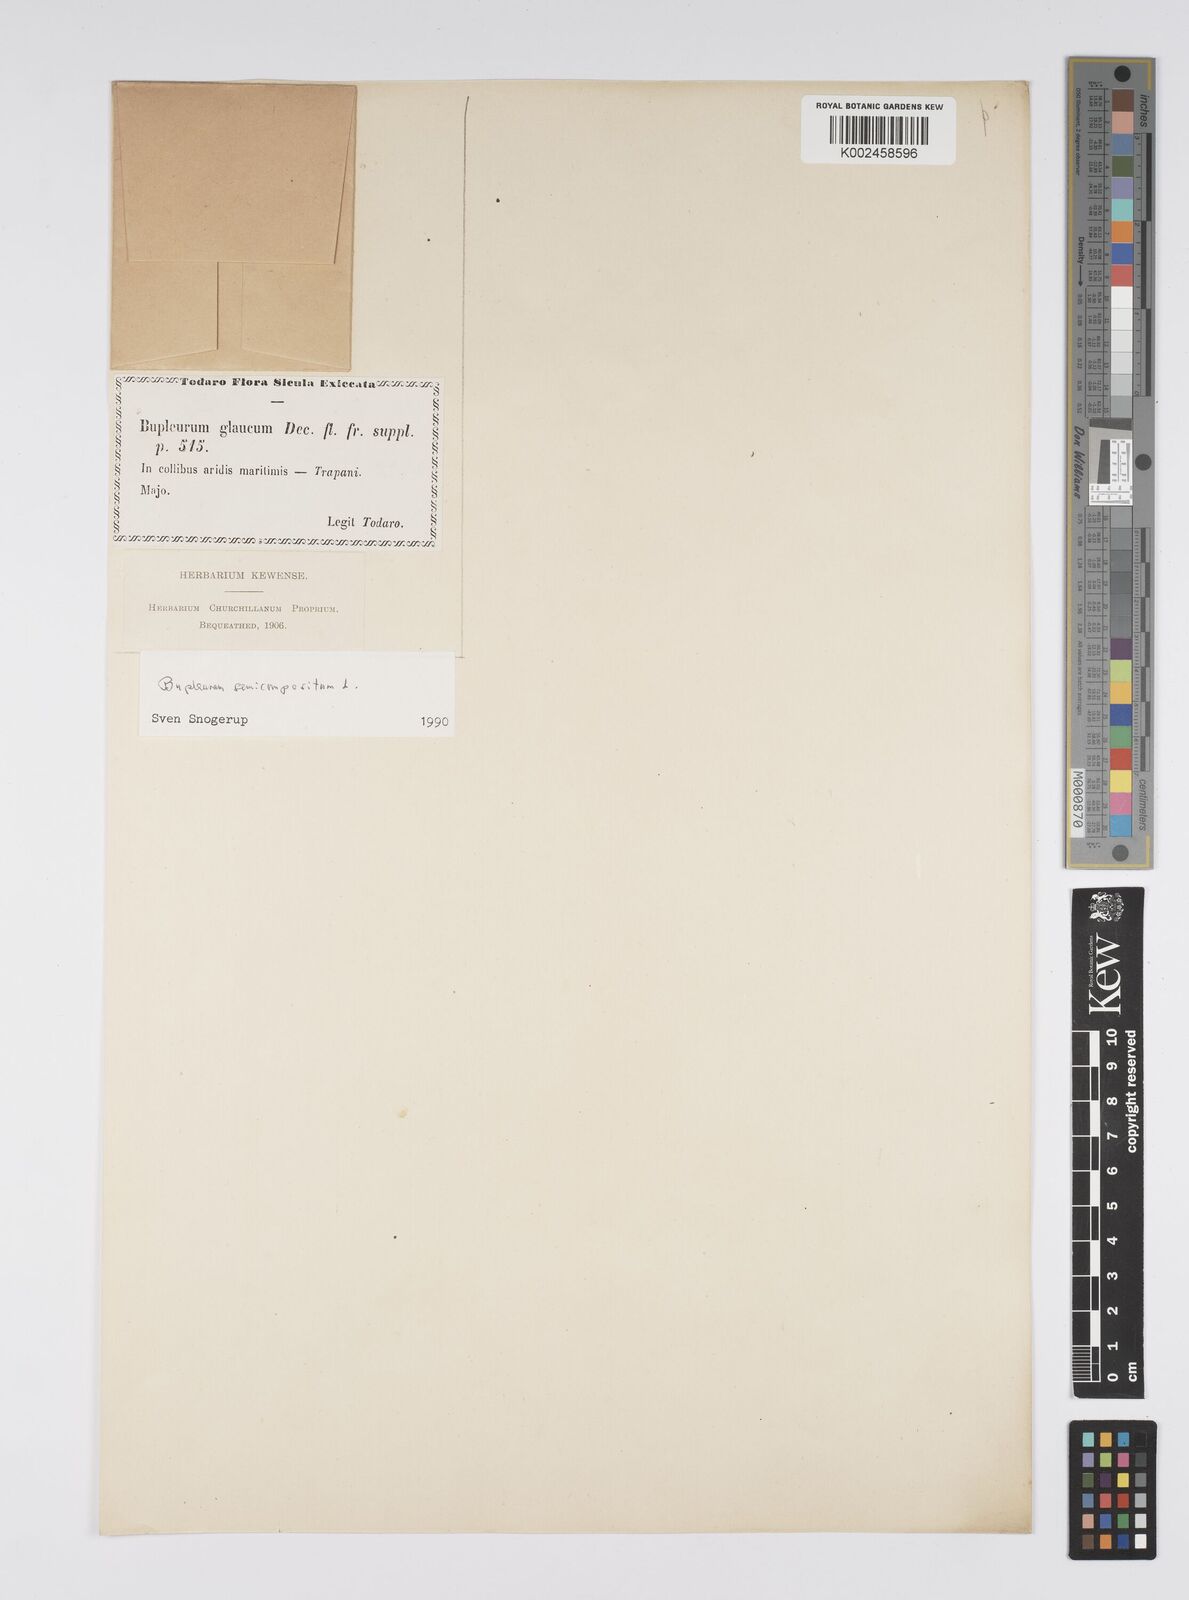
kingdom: Plantae
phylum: Tracheophyta
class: Magnoliopsida
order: Apiales
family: Apiaceae
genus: Bupleurum
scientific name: Bupleurum semicompositum
